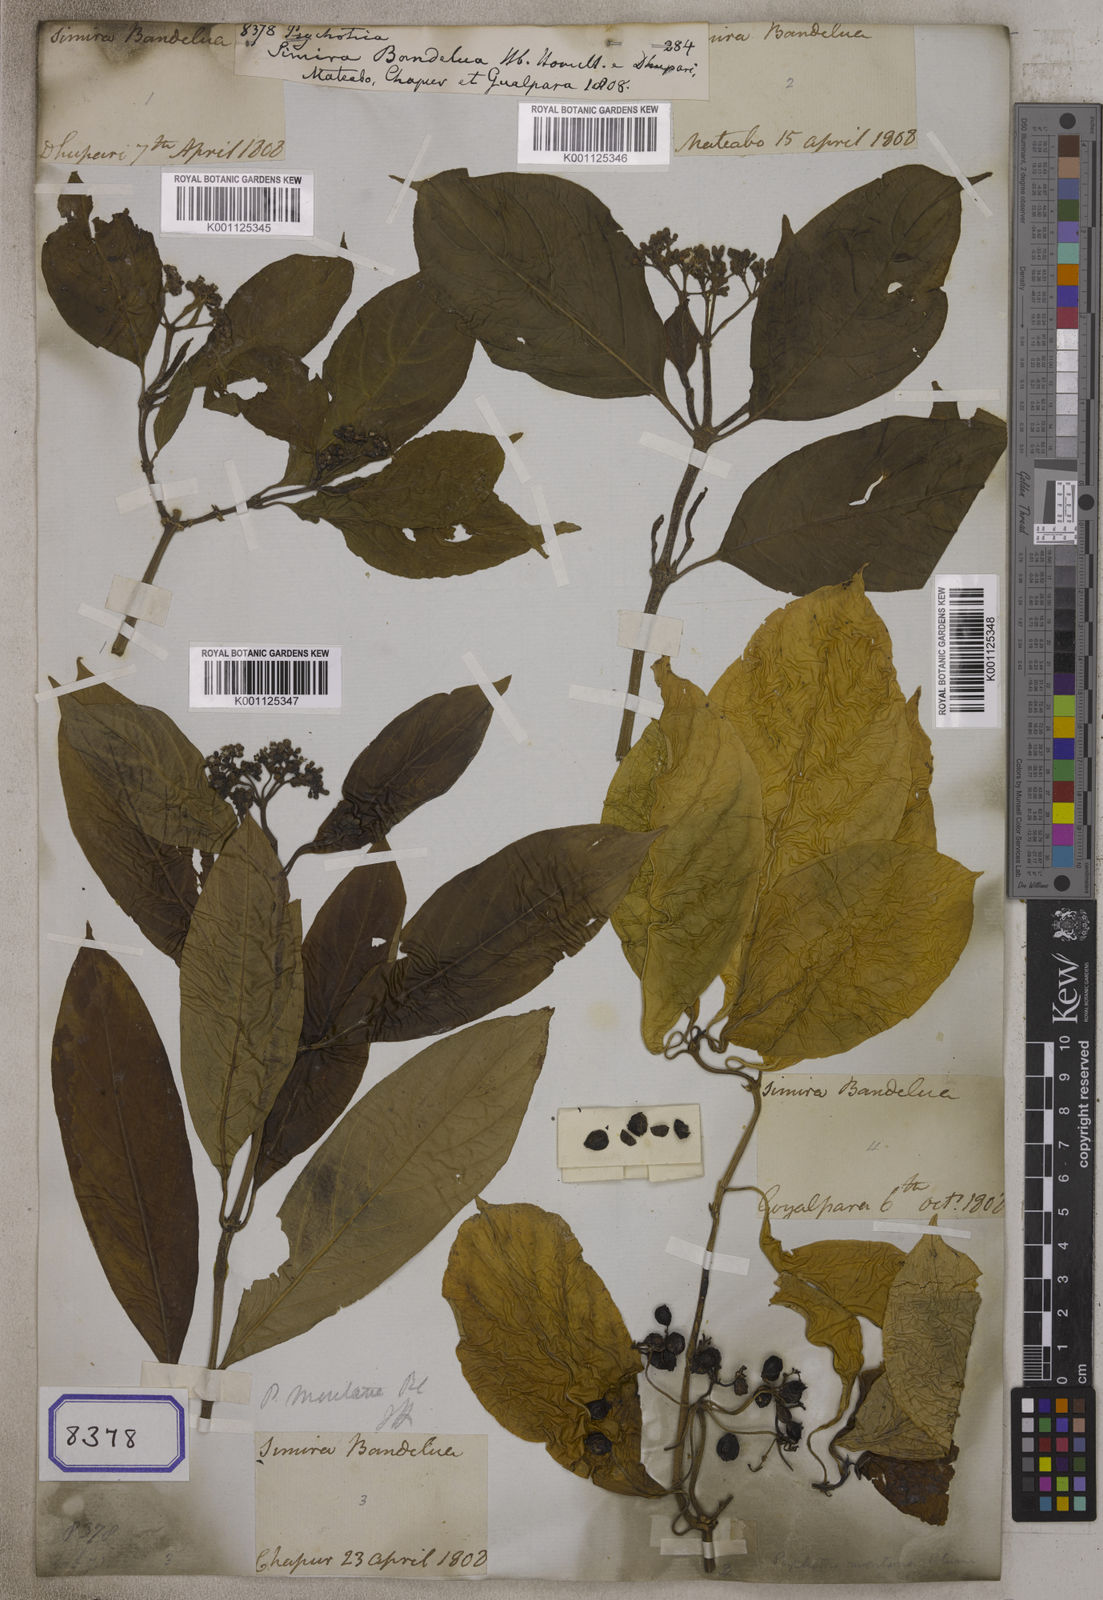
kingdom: Plantae
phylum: Tracheophyta
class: Magnoliopsida
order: Gentianales
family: Rubiaceae
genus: Psychotria
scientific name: Psychotria
